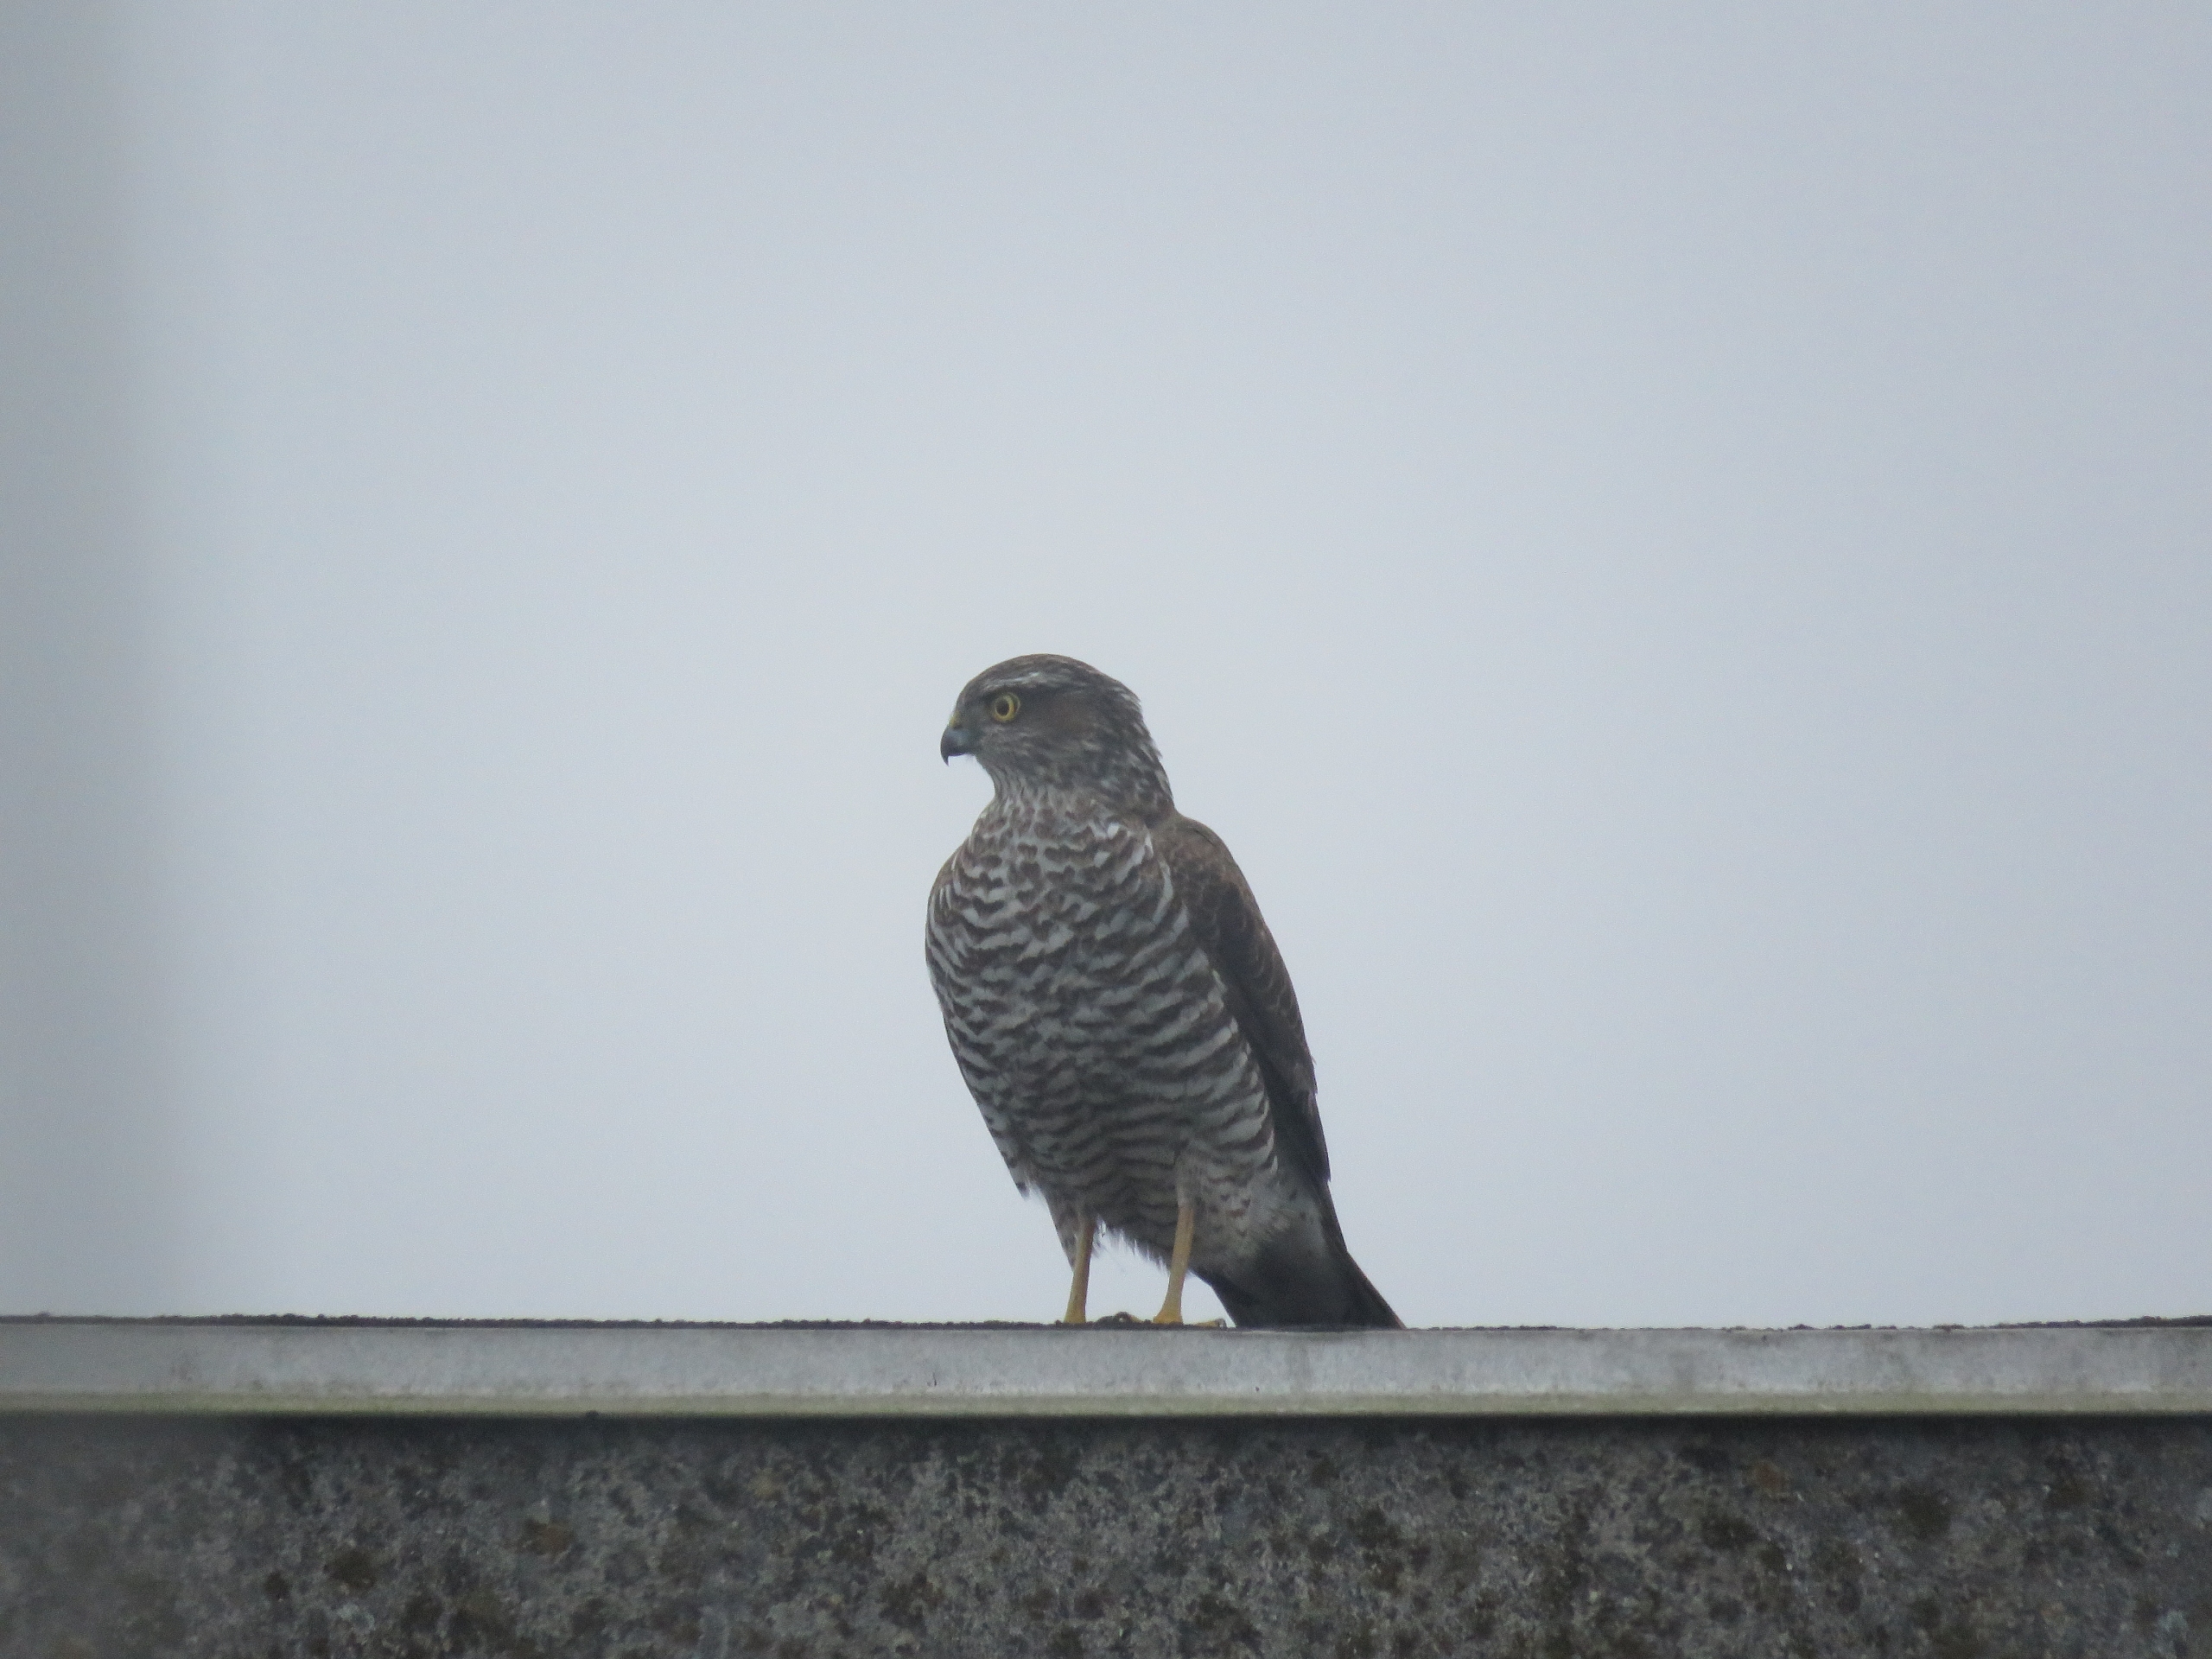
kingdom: Animalia
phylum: Chordata
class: Aves
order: Accipitriformes
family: Accipitridae
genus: Accipiter
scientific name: Accipiter nisus
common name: Spurvehøg
